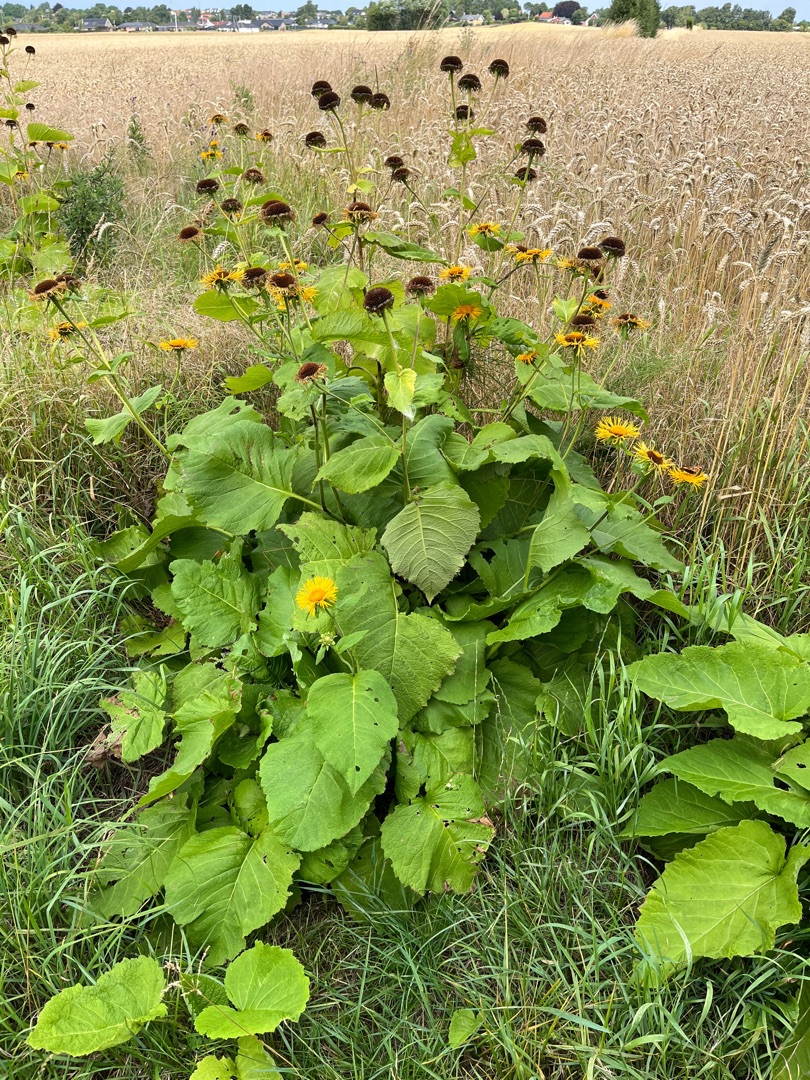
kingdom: Plantae
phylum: Tracheophyta
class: Magnoliopsida
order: Asterales
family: Asteraceae
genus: Telekia
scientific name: Telekia speciosa
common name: Tusindstråle
